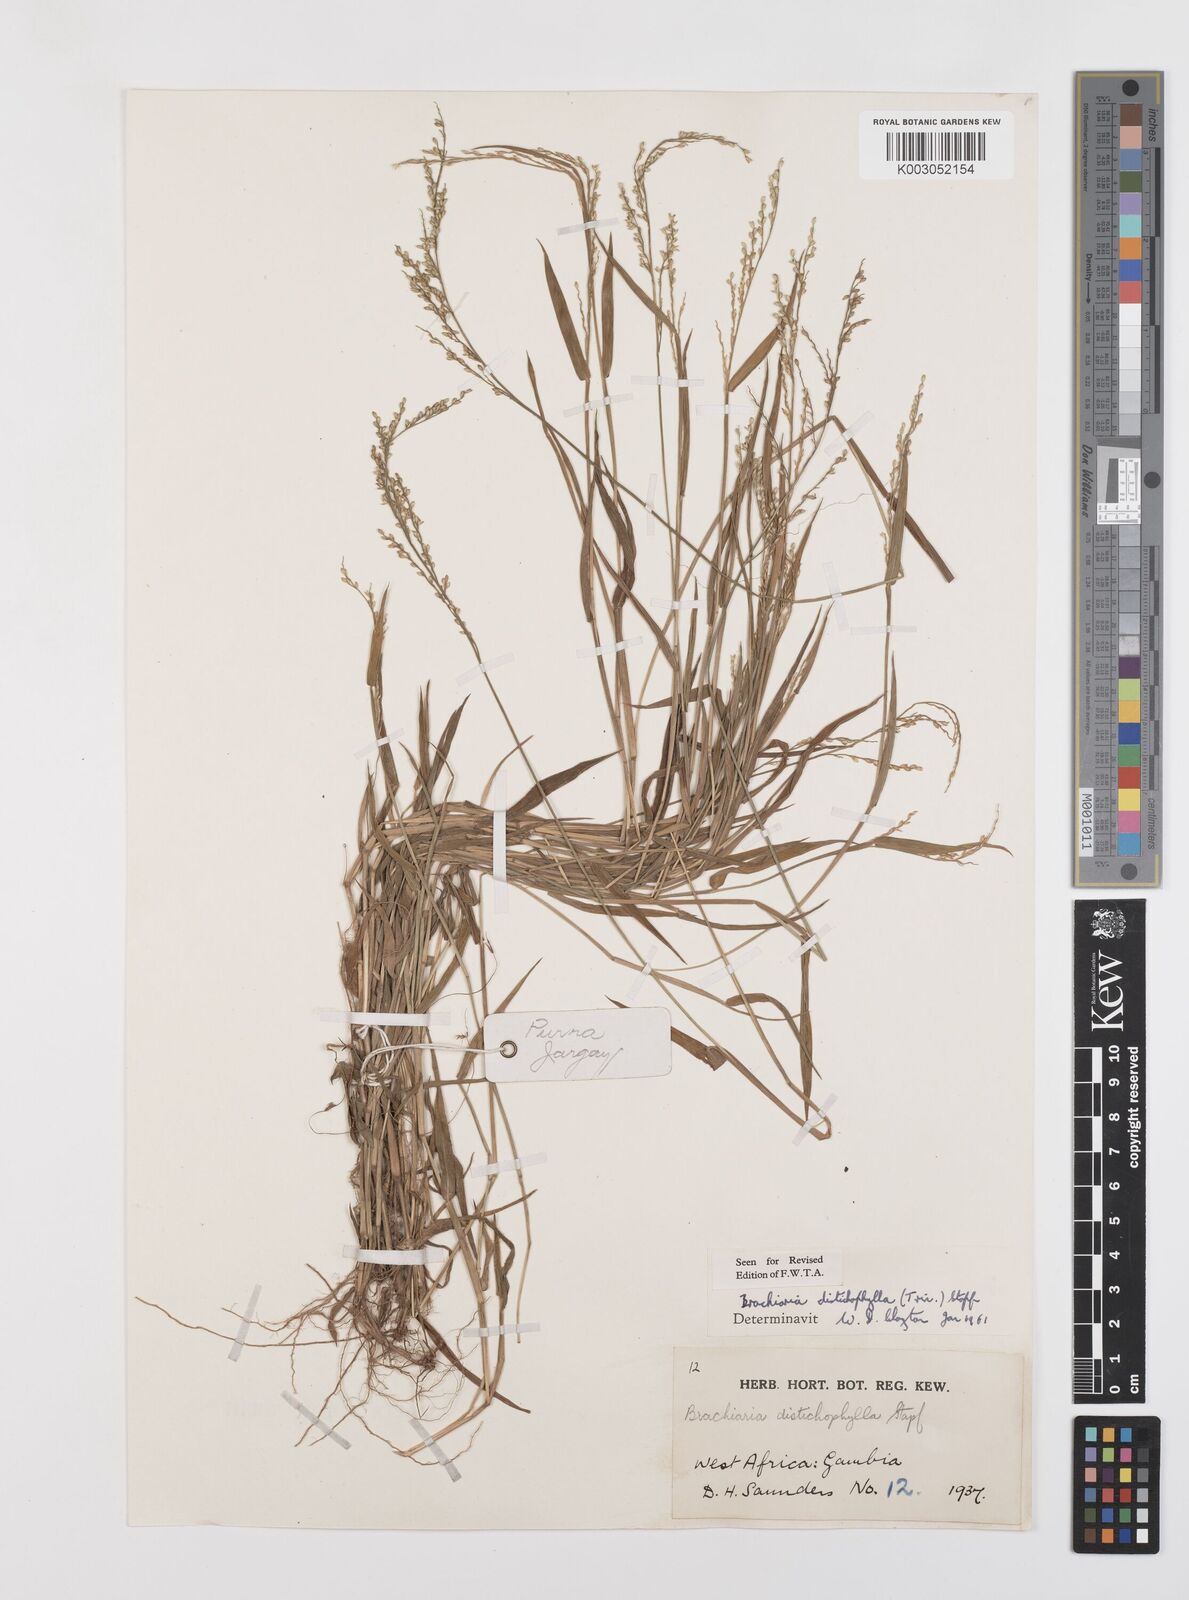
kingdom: Plantae
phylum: Tracheophyta
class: Liliopsida
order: Poales
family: Poaceae
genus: Urochloa
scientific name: Urochloa villosa
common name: Hairy signalgrass
